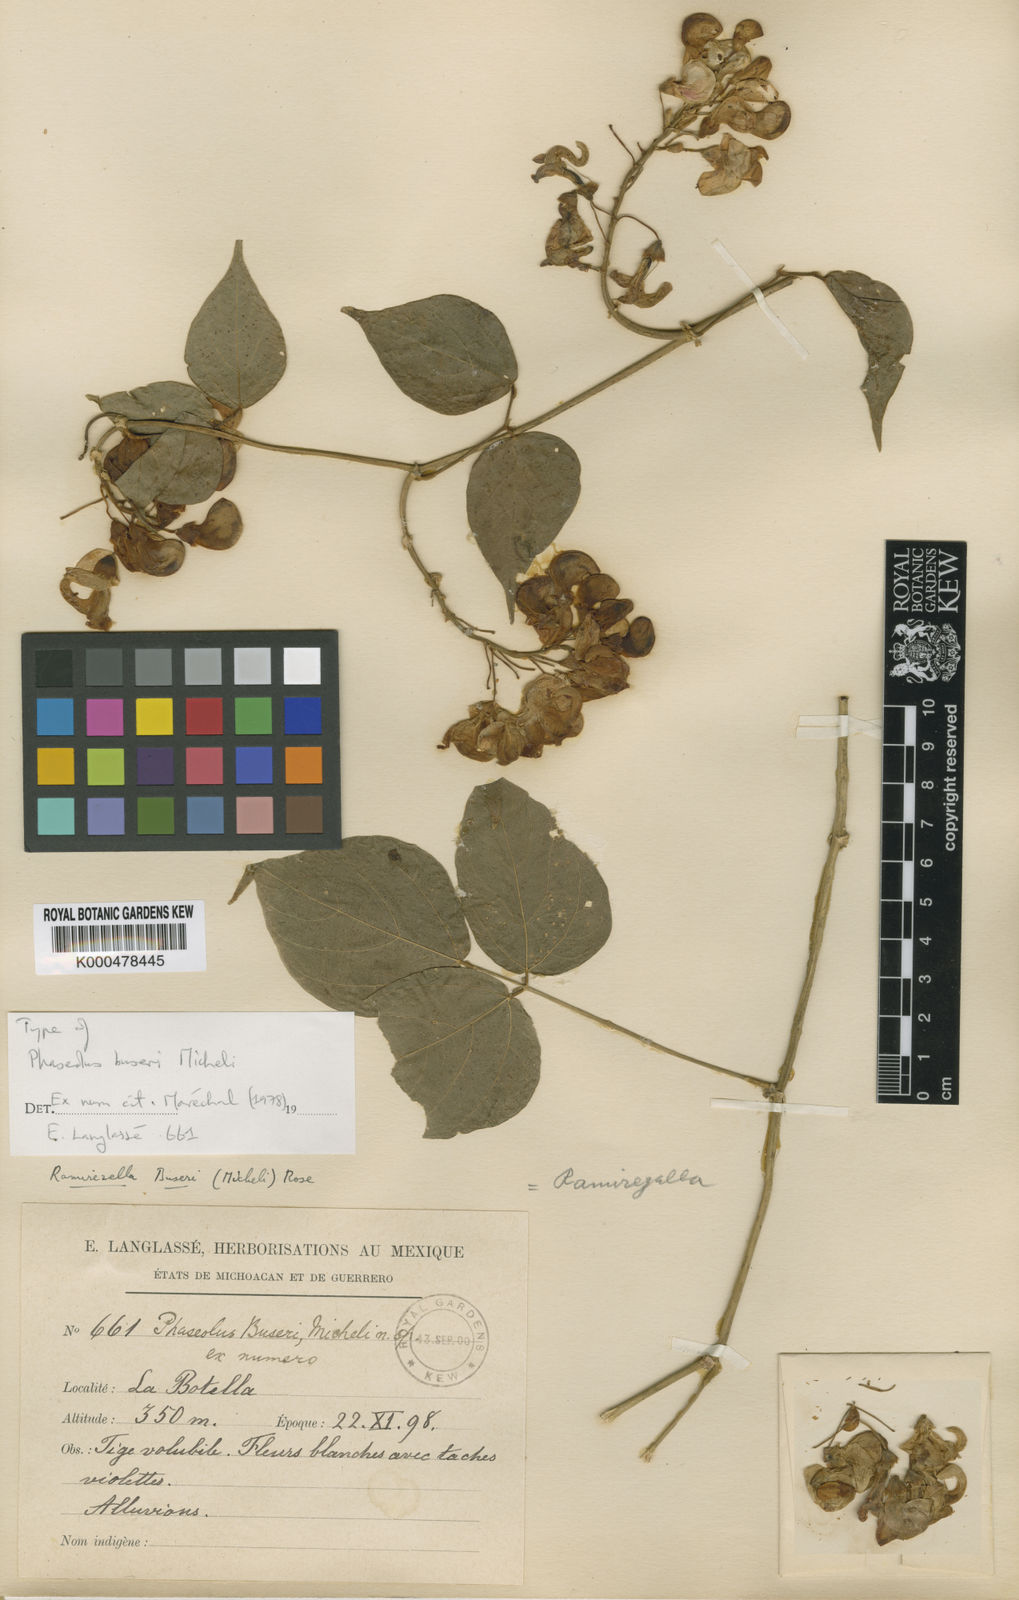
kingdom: Plantae
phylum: Tracheophyta
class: Magnoliopsida
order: Fabales
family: Fabaceae
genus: Ramirezella
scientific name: Ramirezella strobilophora
